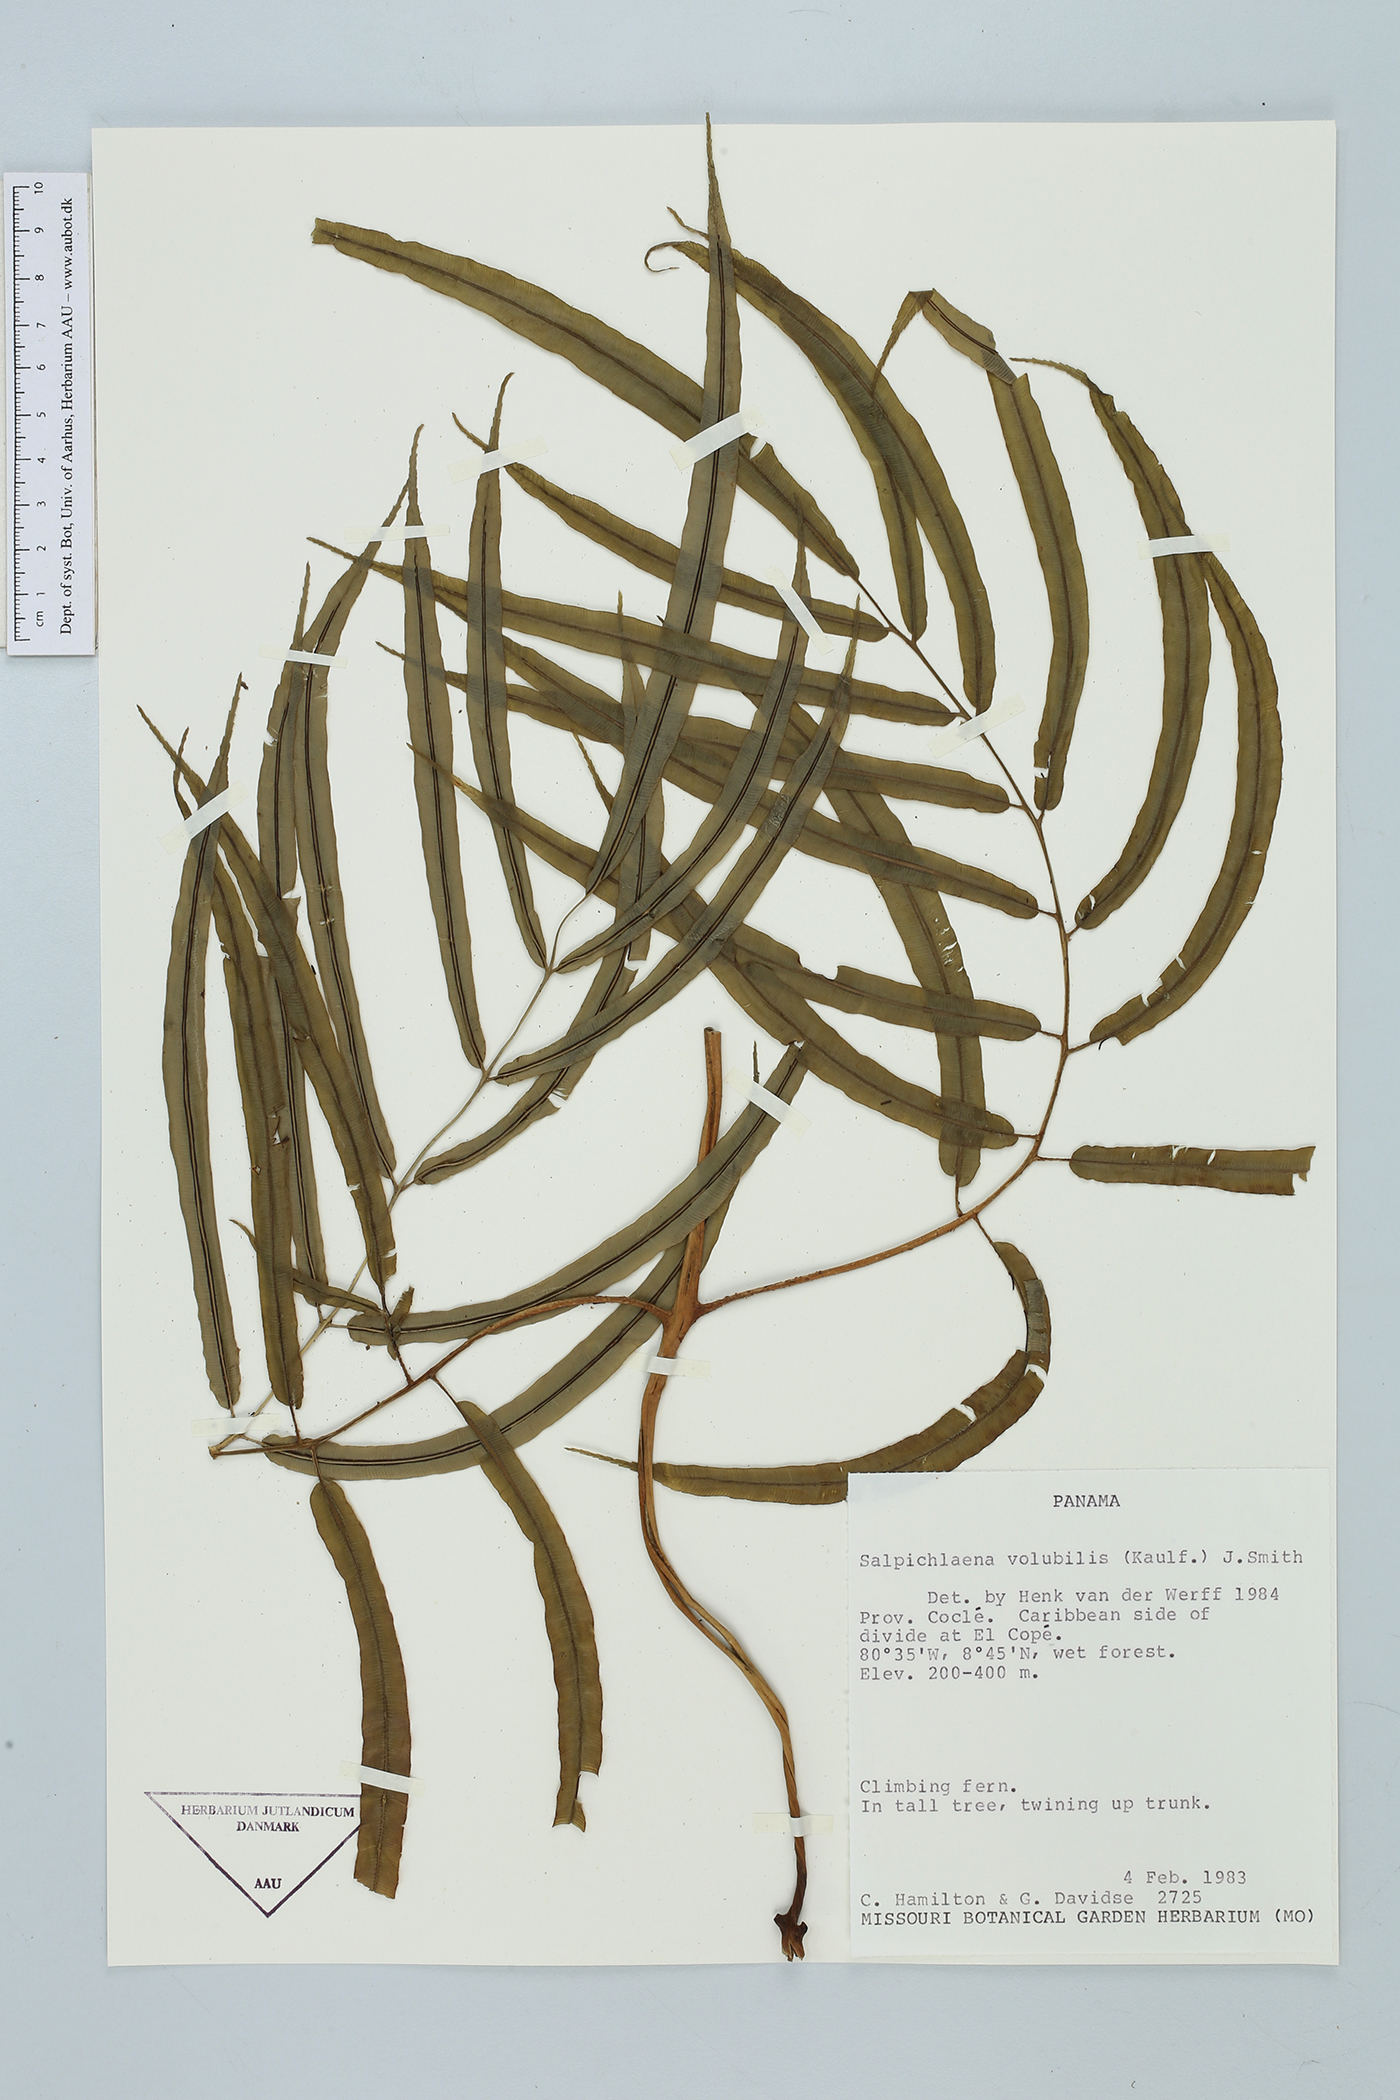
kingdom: Plantae
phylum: Tracheophyta
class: Polypodiopsida
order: Polypodiales
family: Blechnaceae
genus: Salpichlaena
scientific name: Salpichlaena volubilis
